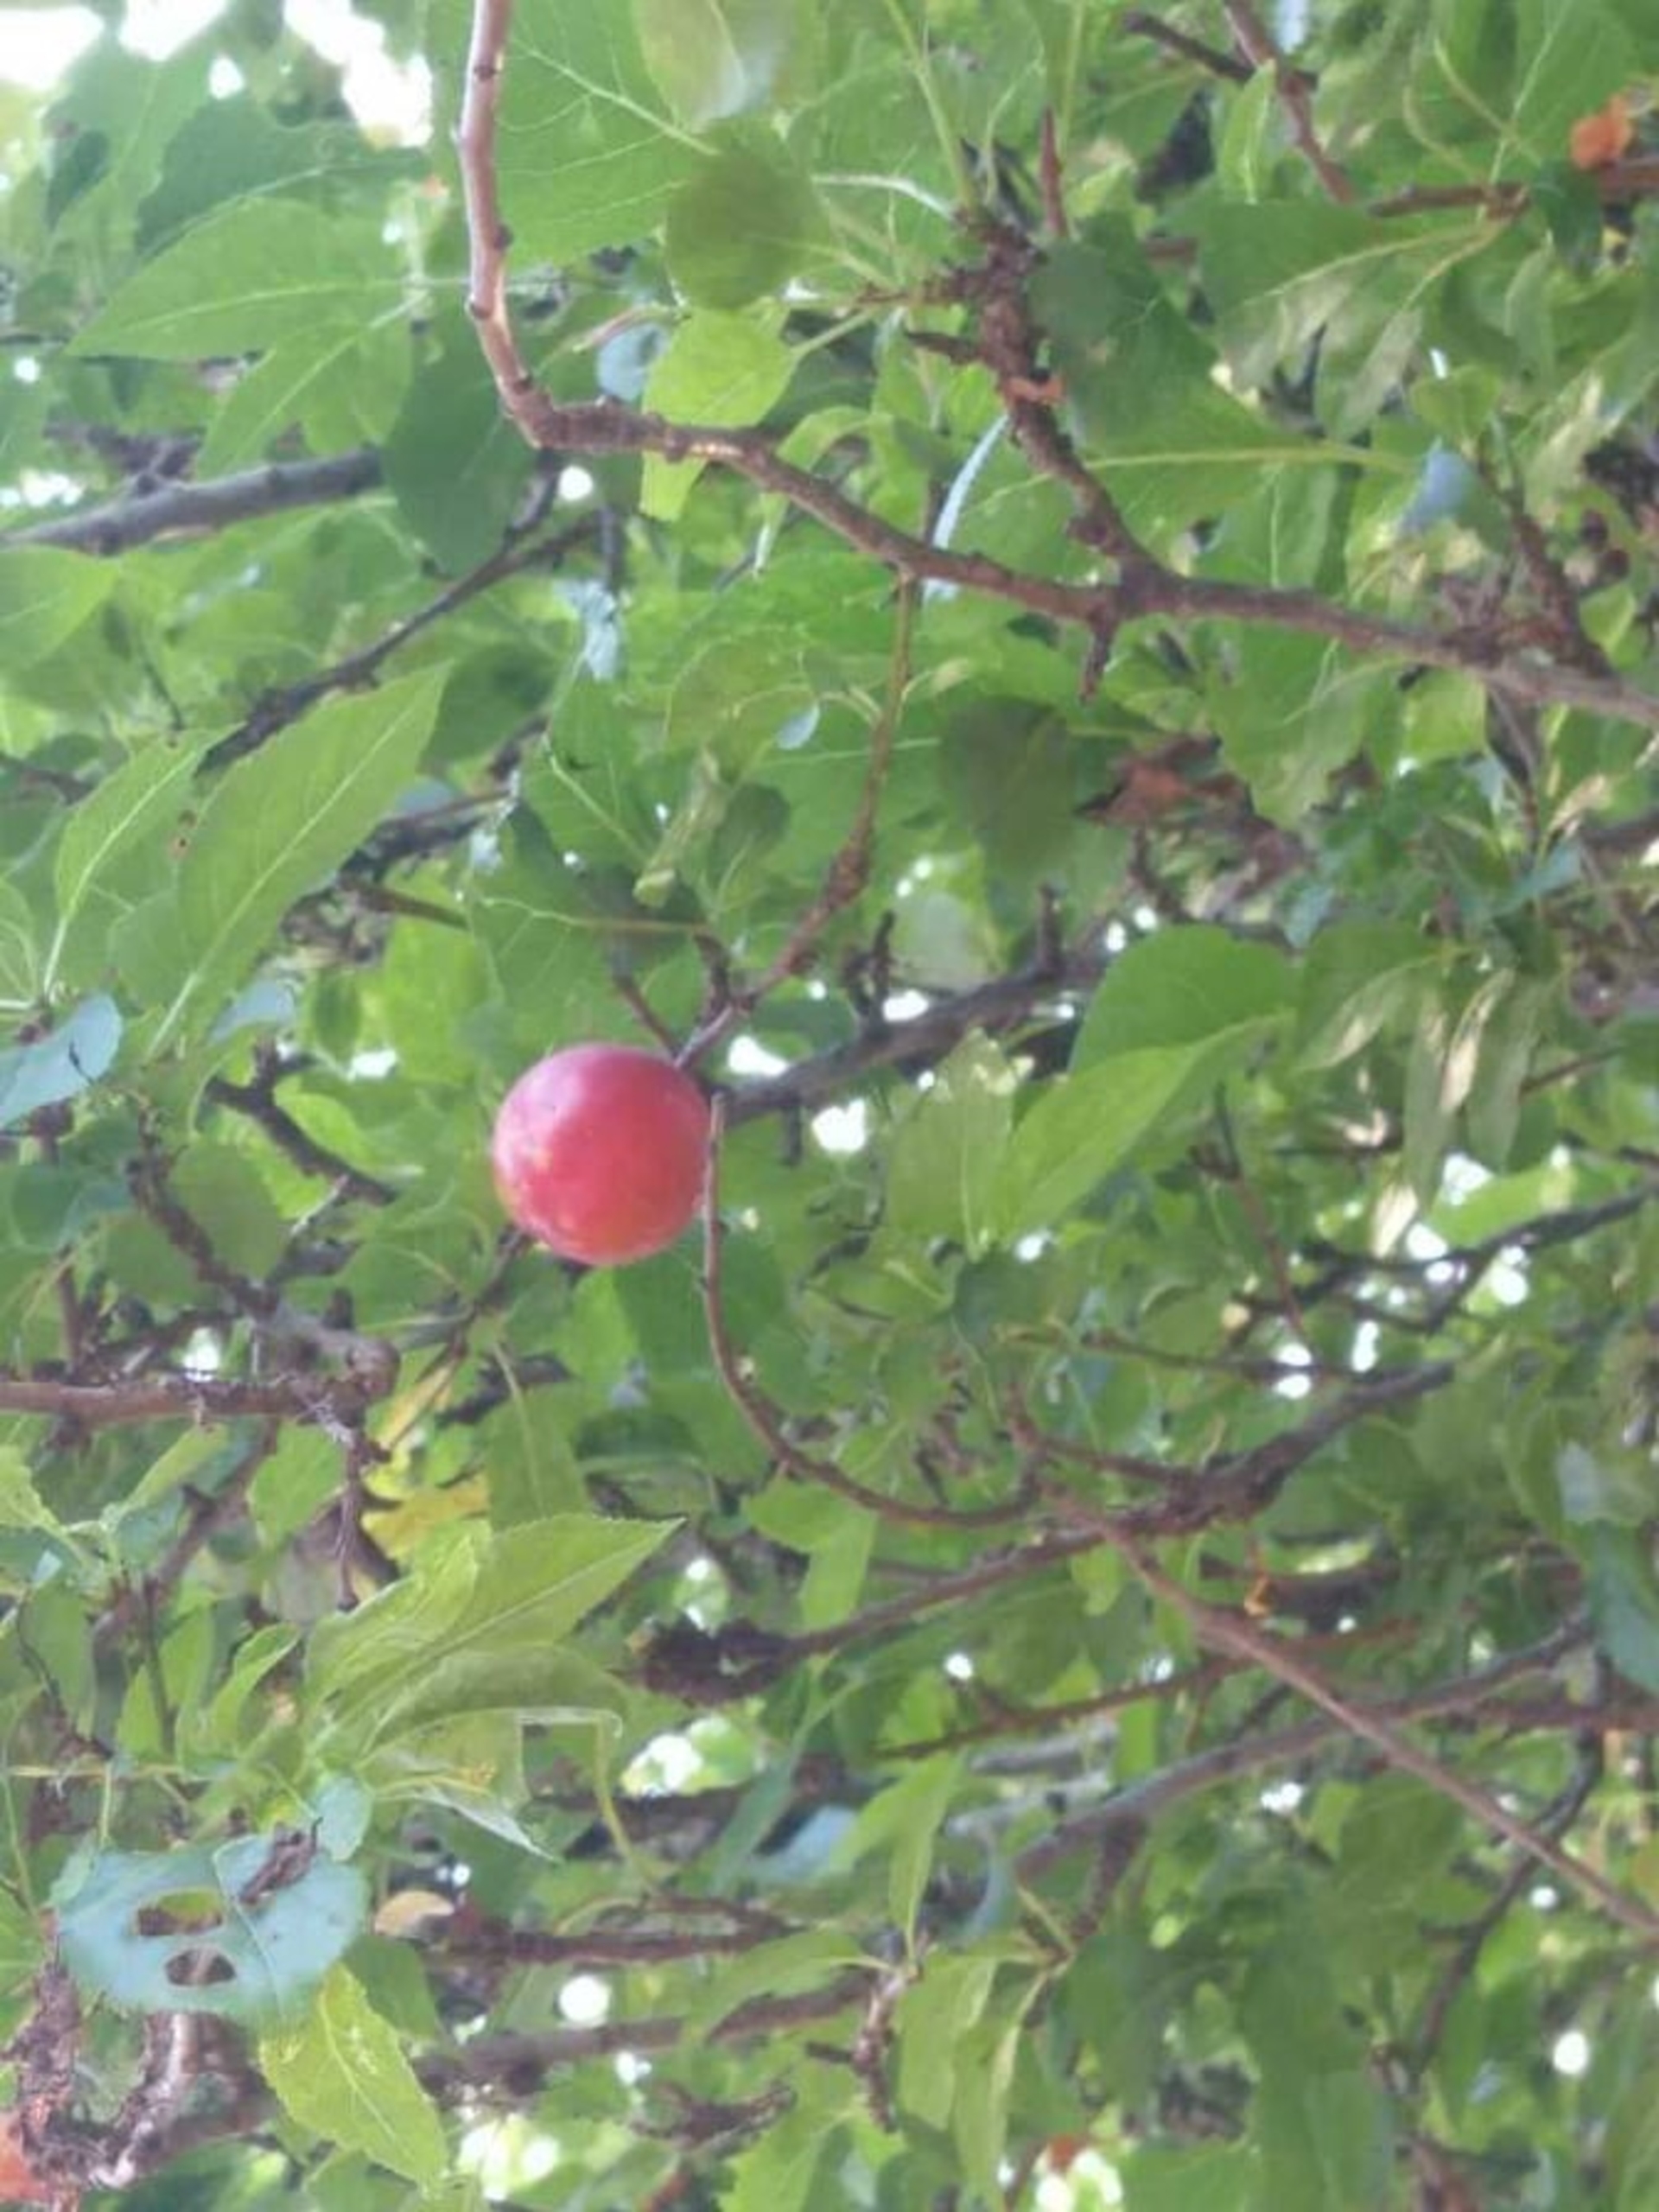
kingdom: Plantae
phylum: Tracheophyta
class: Magnoliopsida
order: Rosales
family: Rosaceae
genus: Prunus
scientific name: Prunus cerasifera
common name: Mirabel
